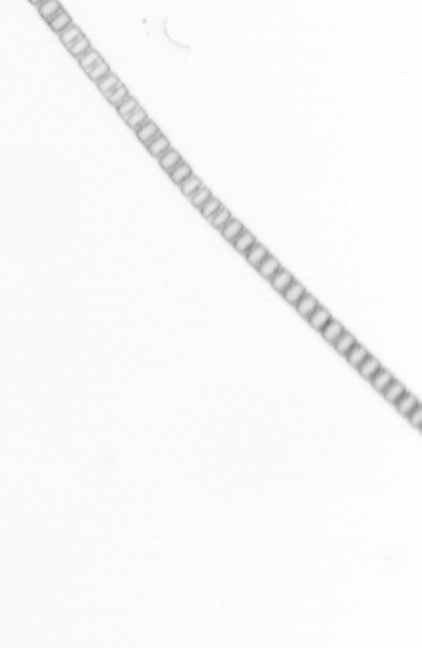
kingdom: Chromista
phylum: Ochrophyta
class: Bacillariophyceae
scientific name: Bacillariophyceae
